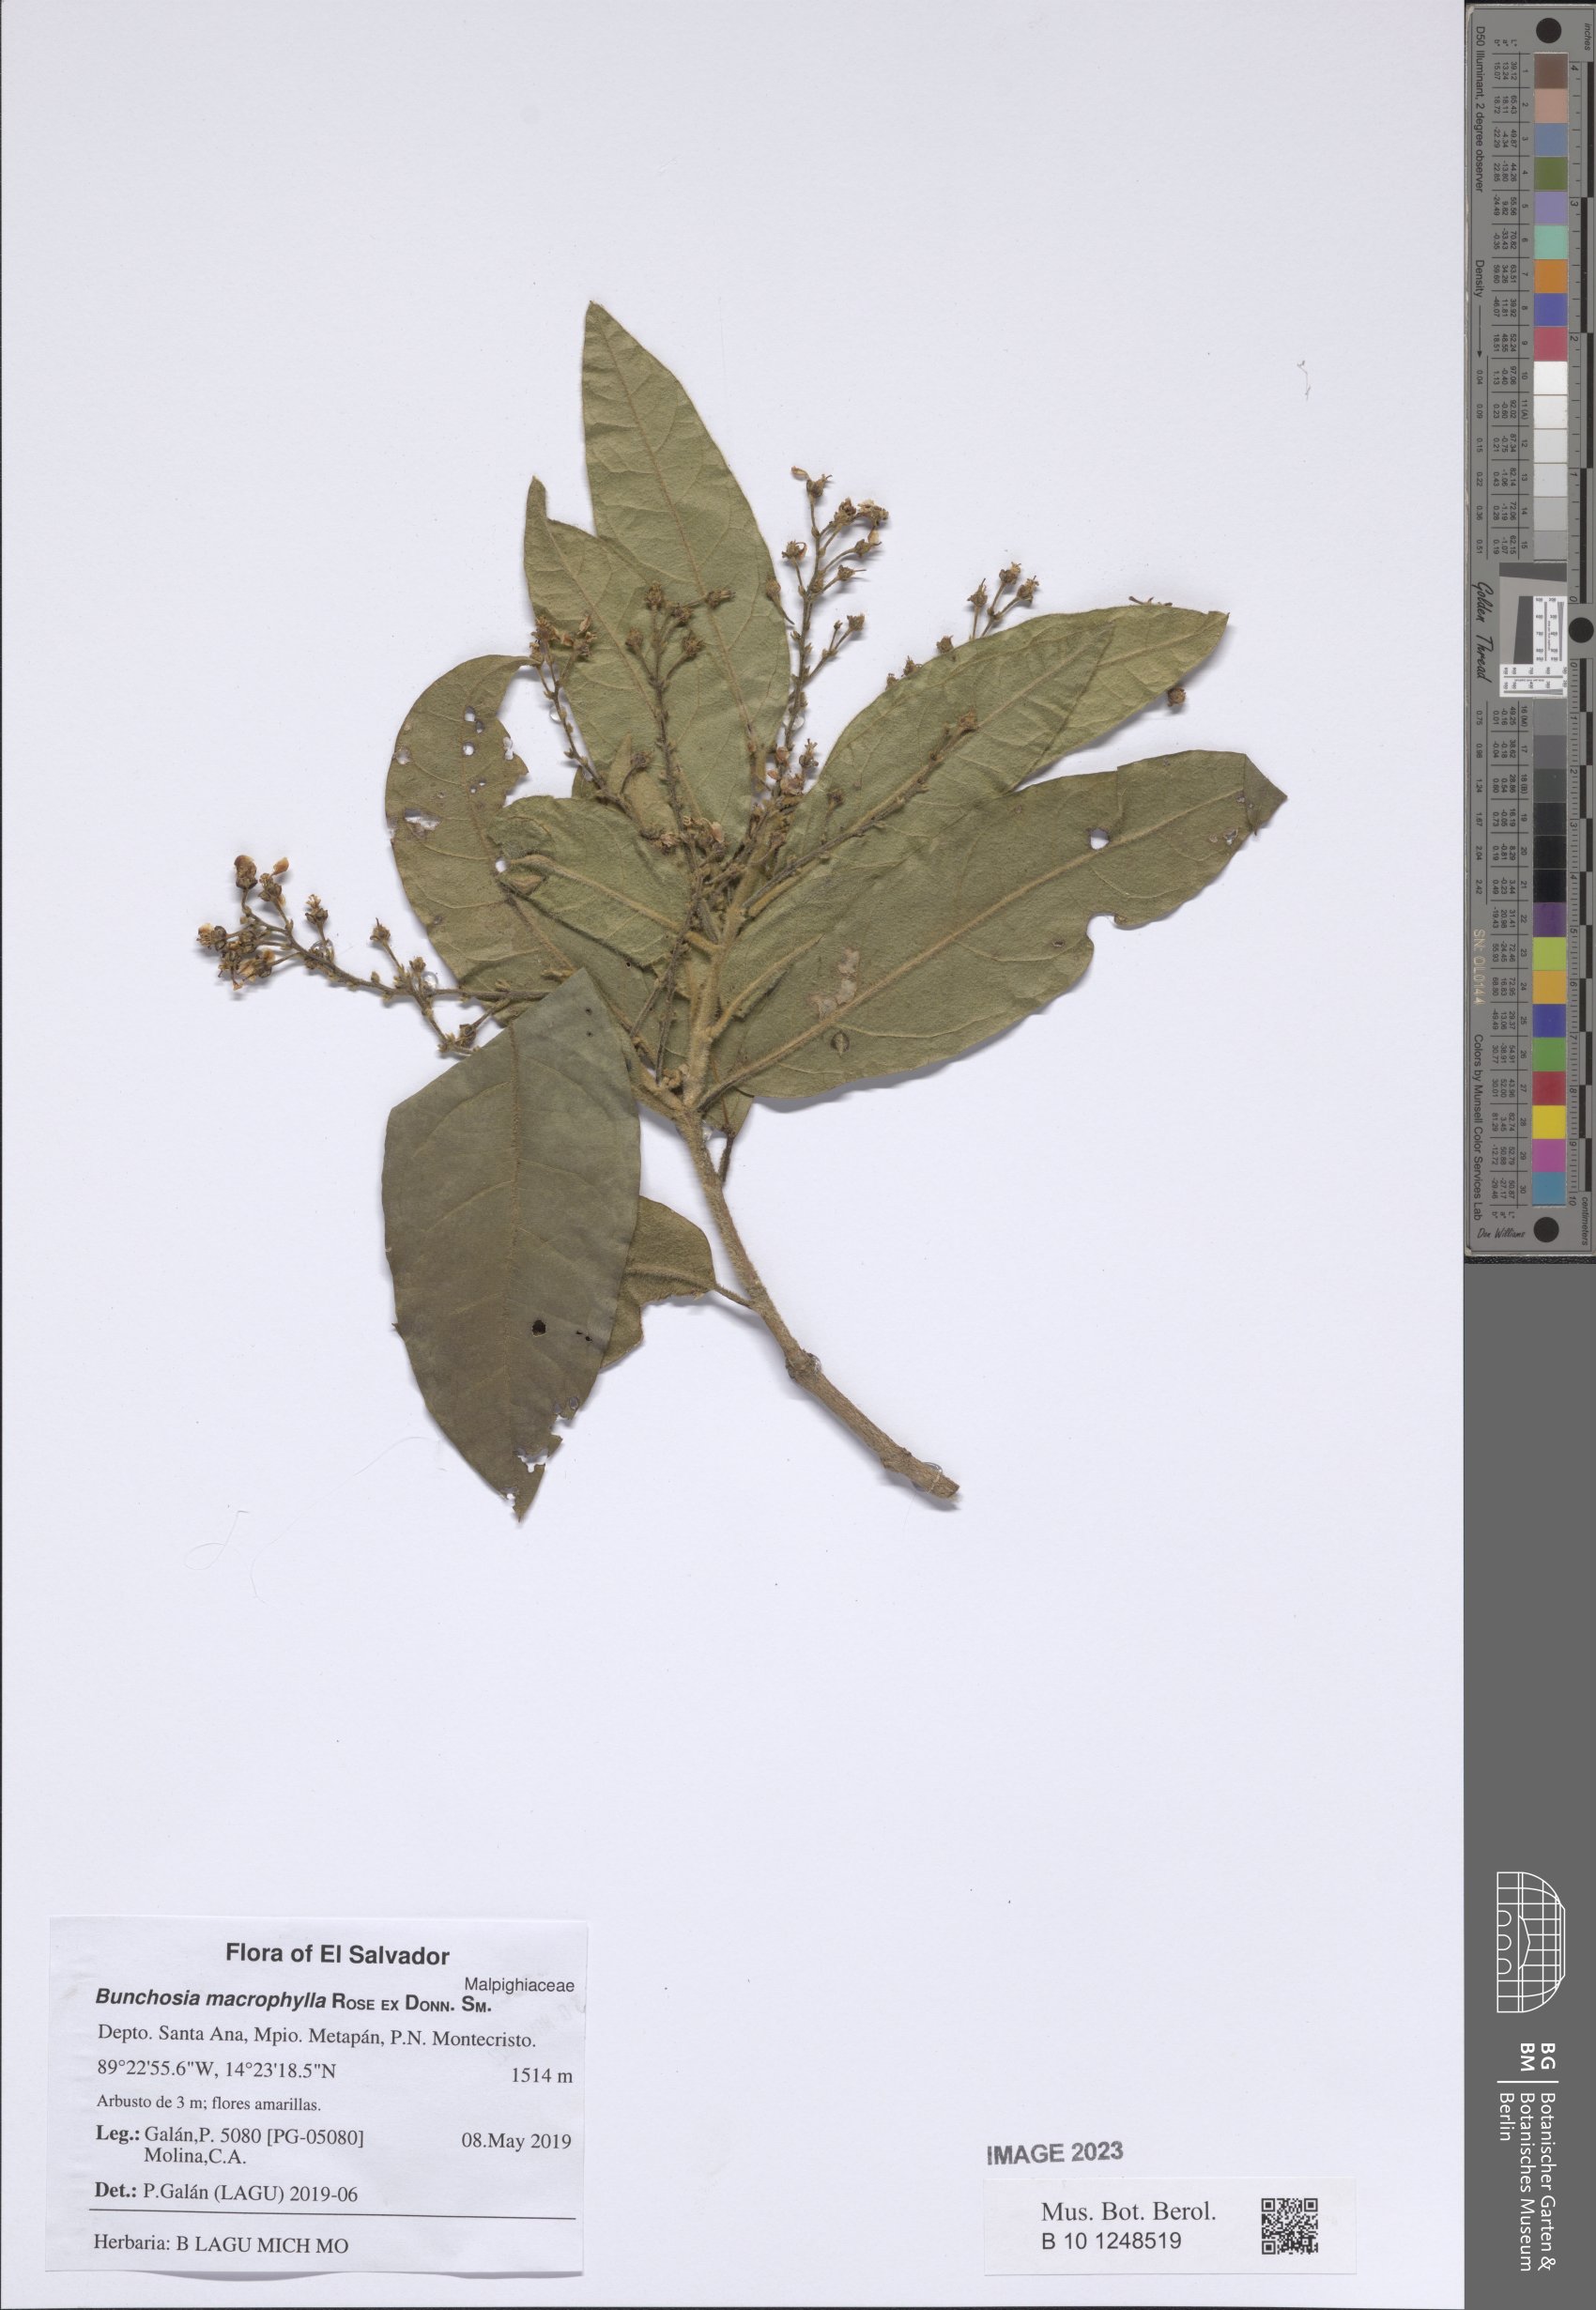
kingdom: Plantae
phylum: Tracheophyta
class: Magnoliopsida
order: Malpighiales
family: Malpighiaceae
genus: Bunchosia
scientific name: Bunchosia macrophylla
